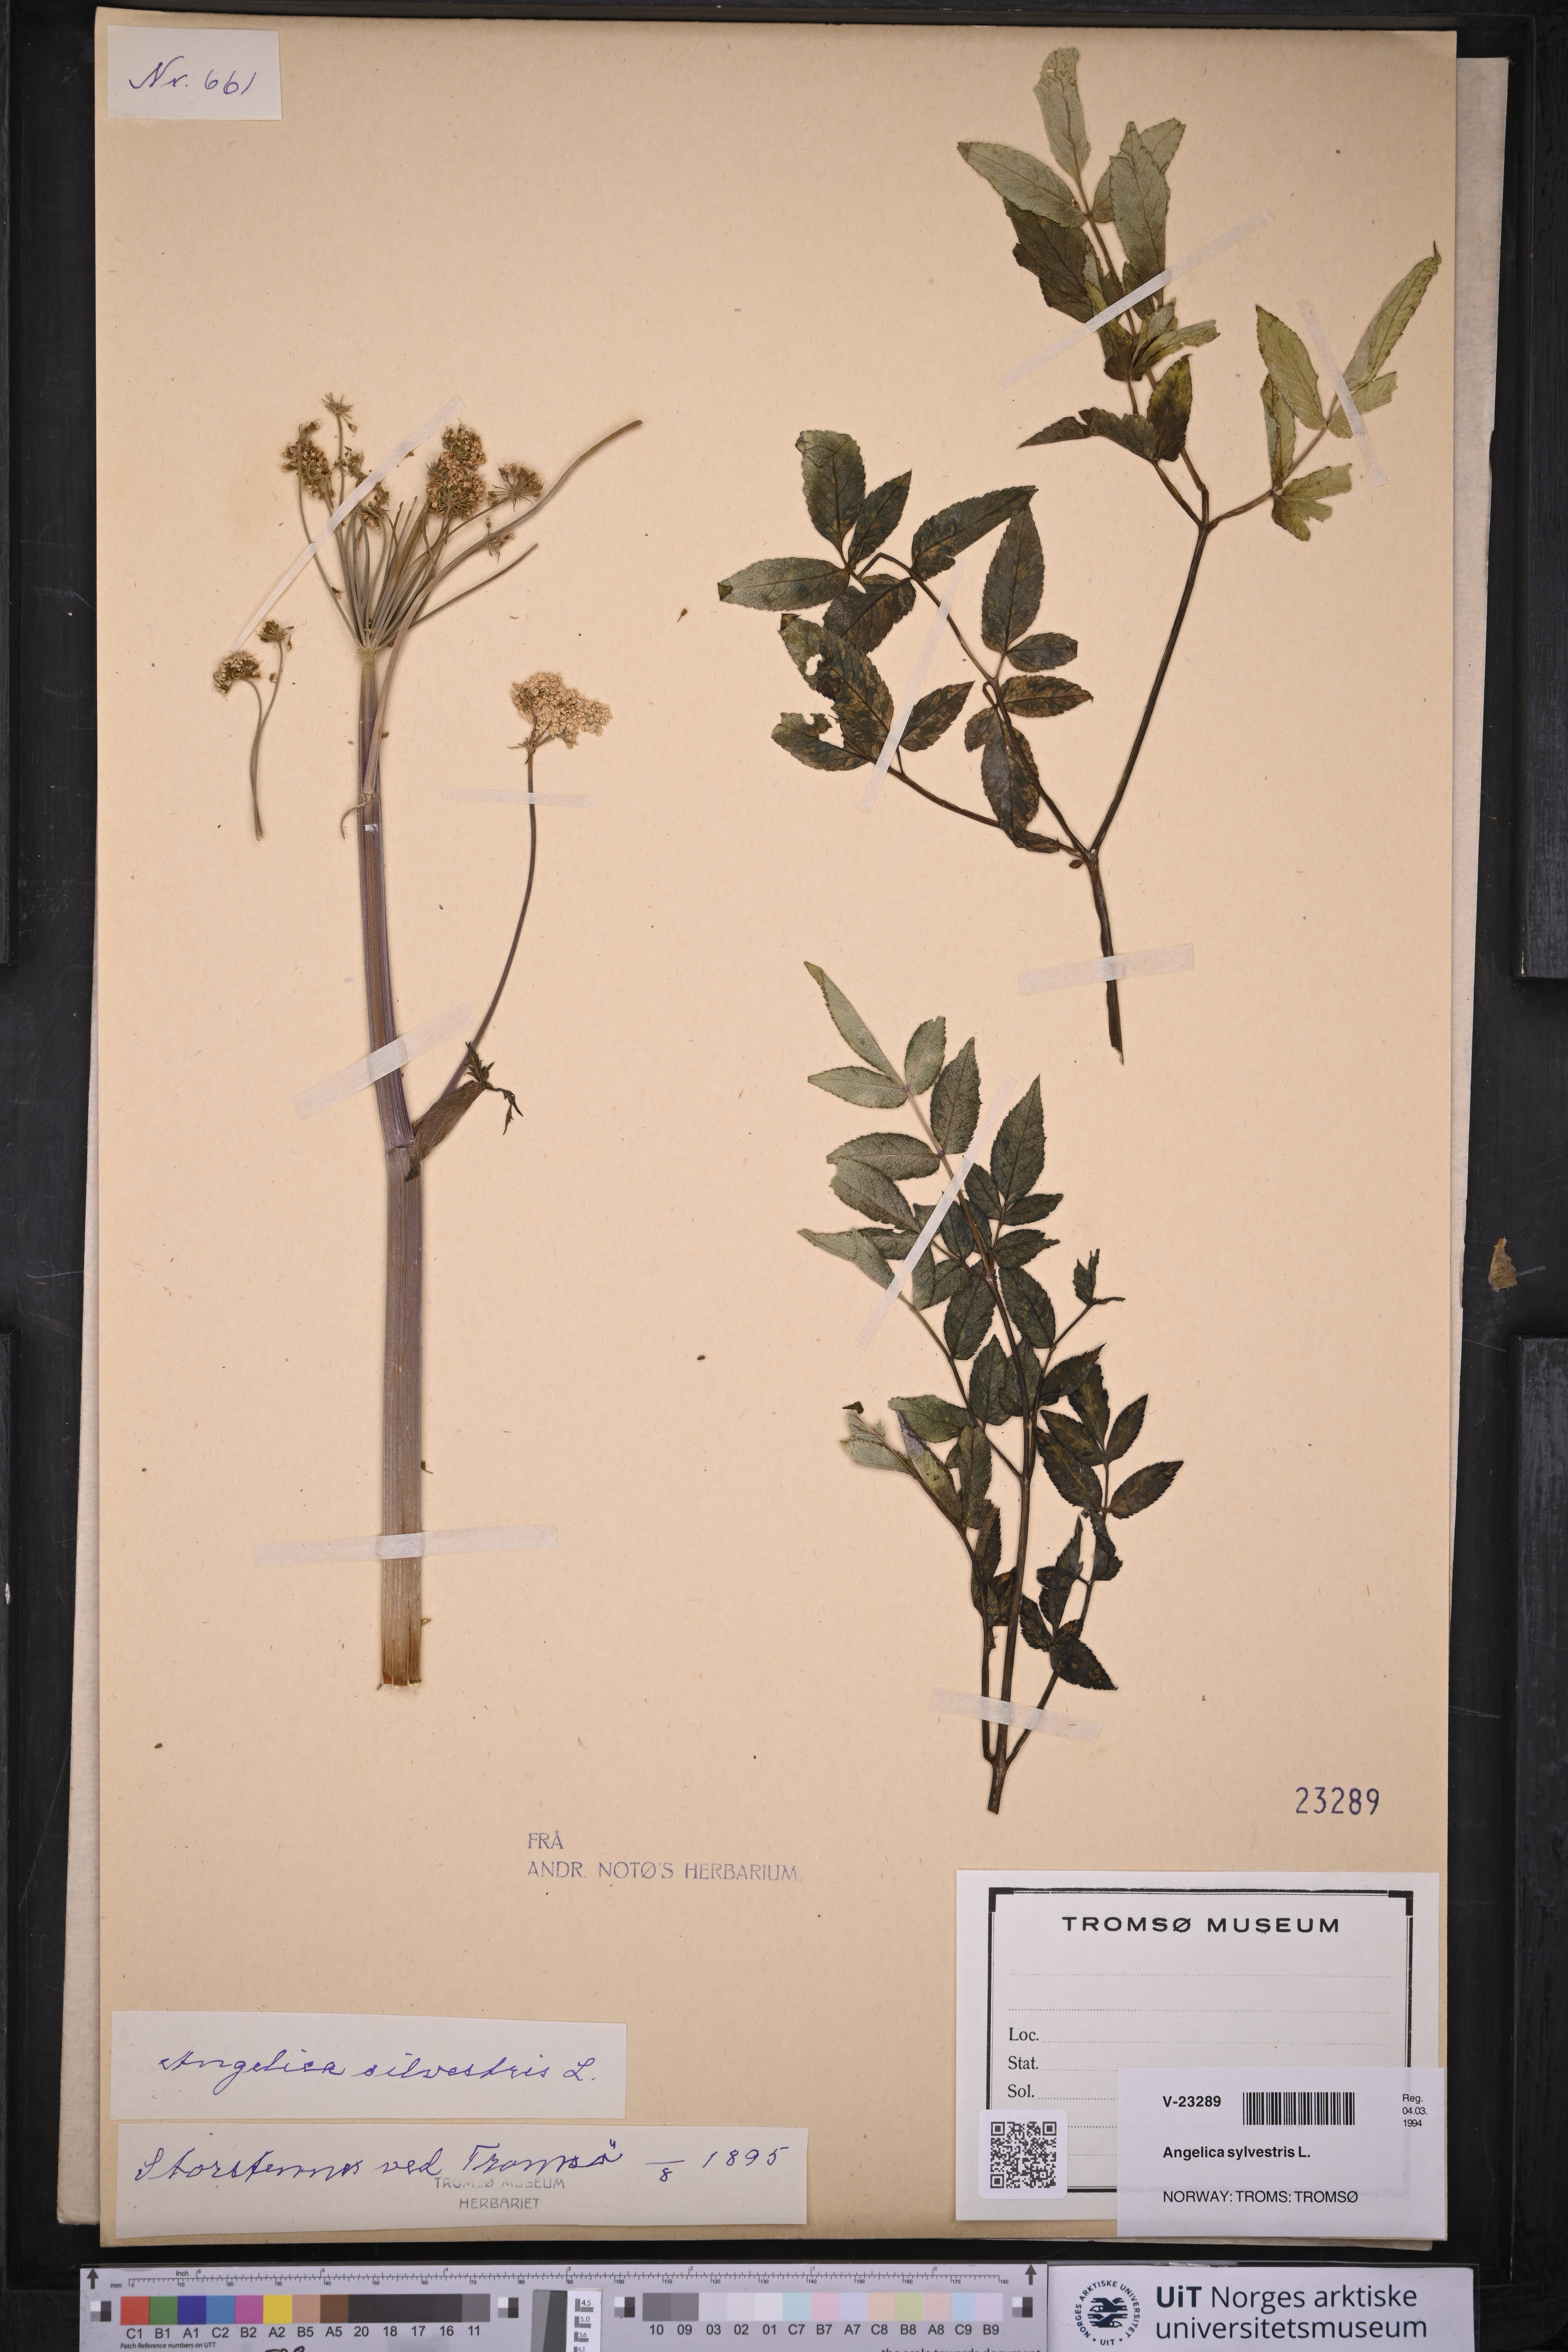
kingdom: Plantae
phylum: Tracheophyta
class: Magnoliopsida
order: Apiales
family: Apiaceae
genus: Angelica
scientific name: Angelica sylvestris
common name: Wild angelica
